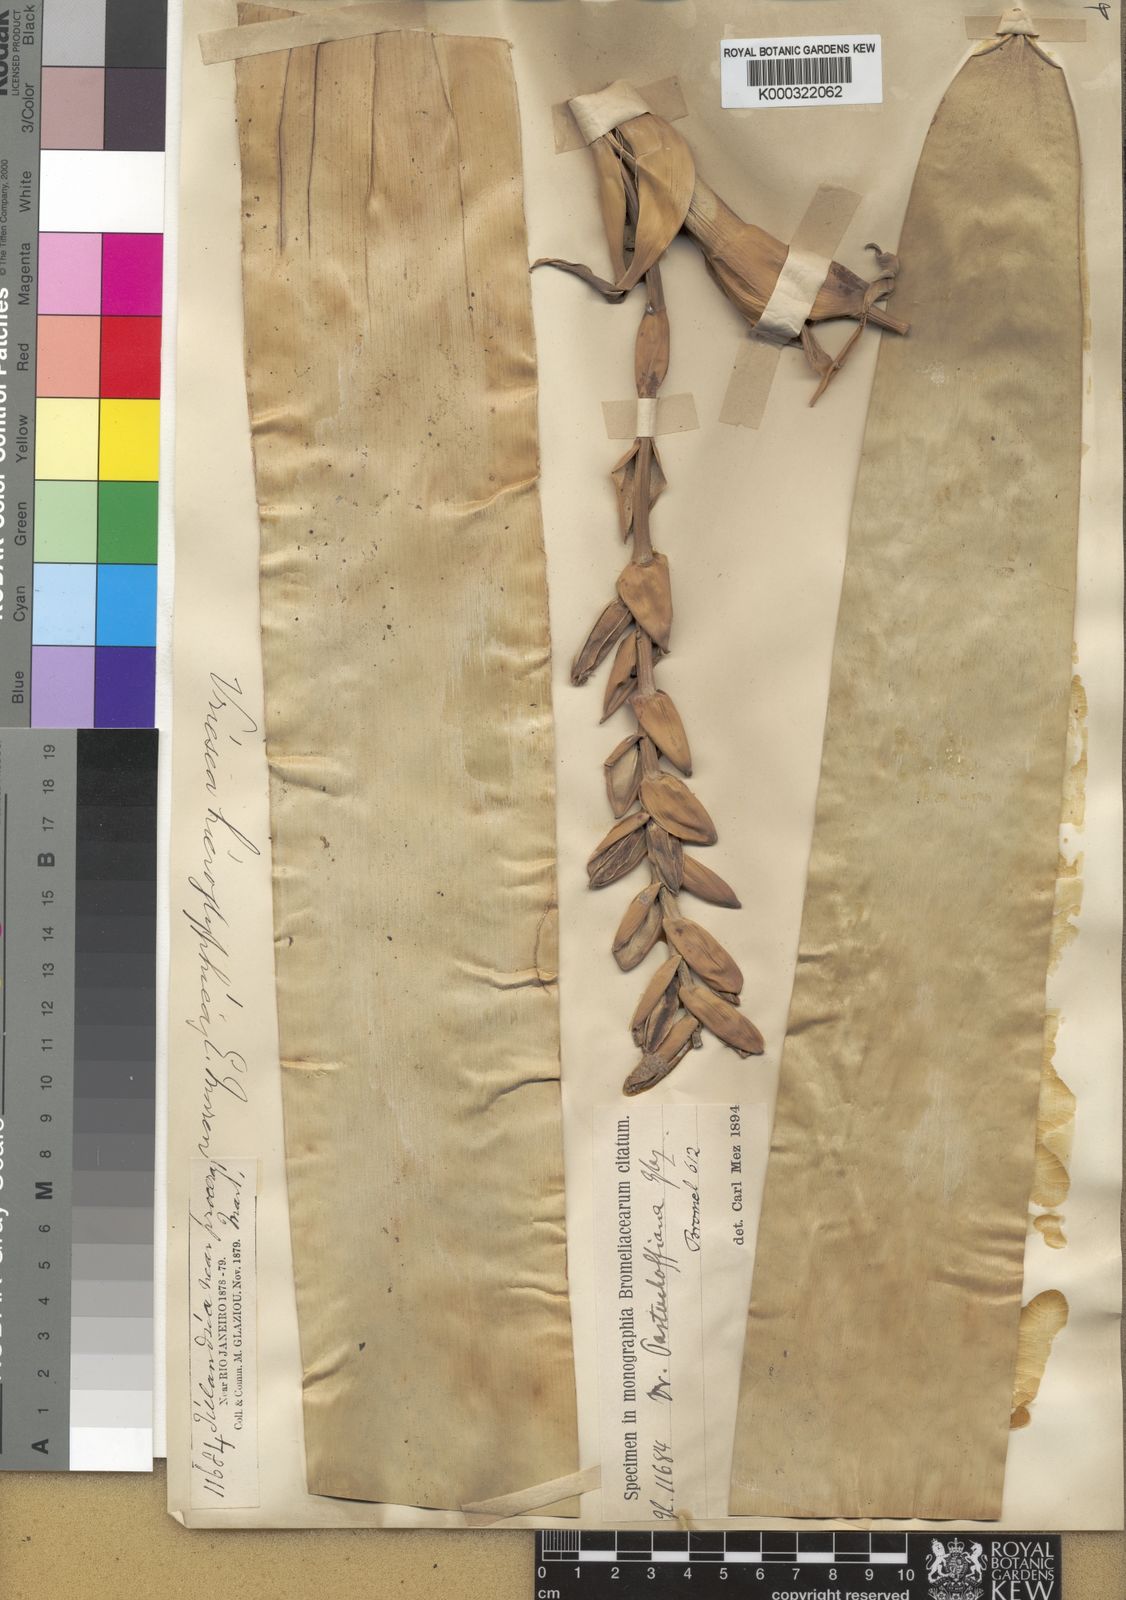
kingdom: Plantae
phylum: Tracheophyta
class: Liliopsida
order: Poales
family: Bromeliaceae
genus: Vriesea
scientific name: Vriesea pastuchoffiana
